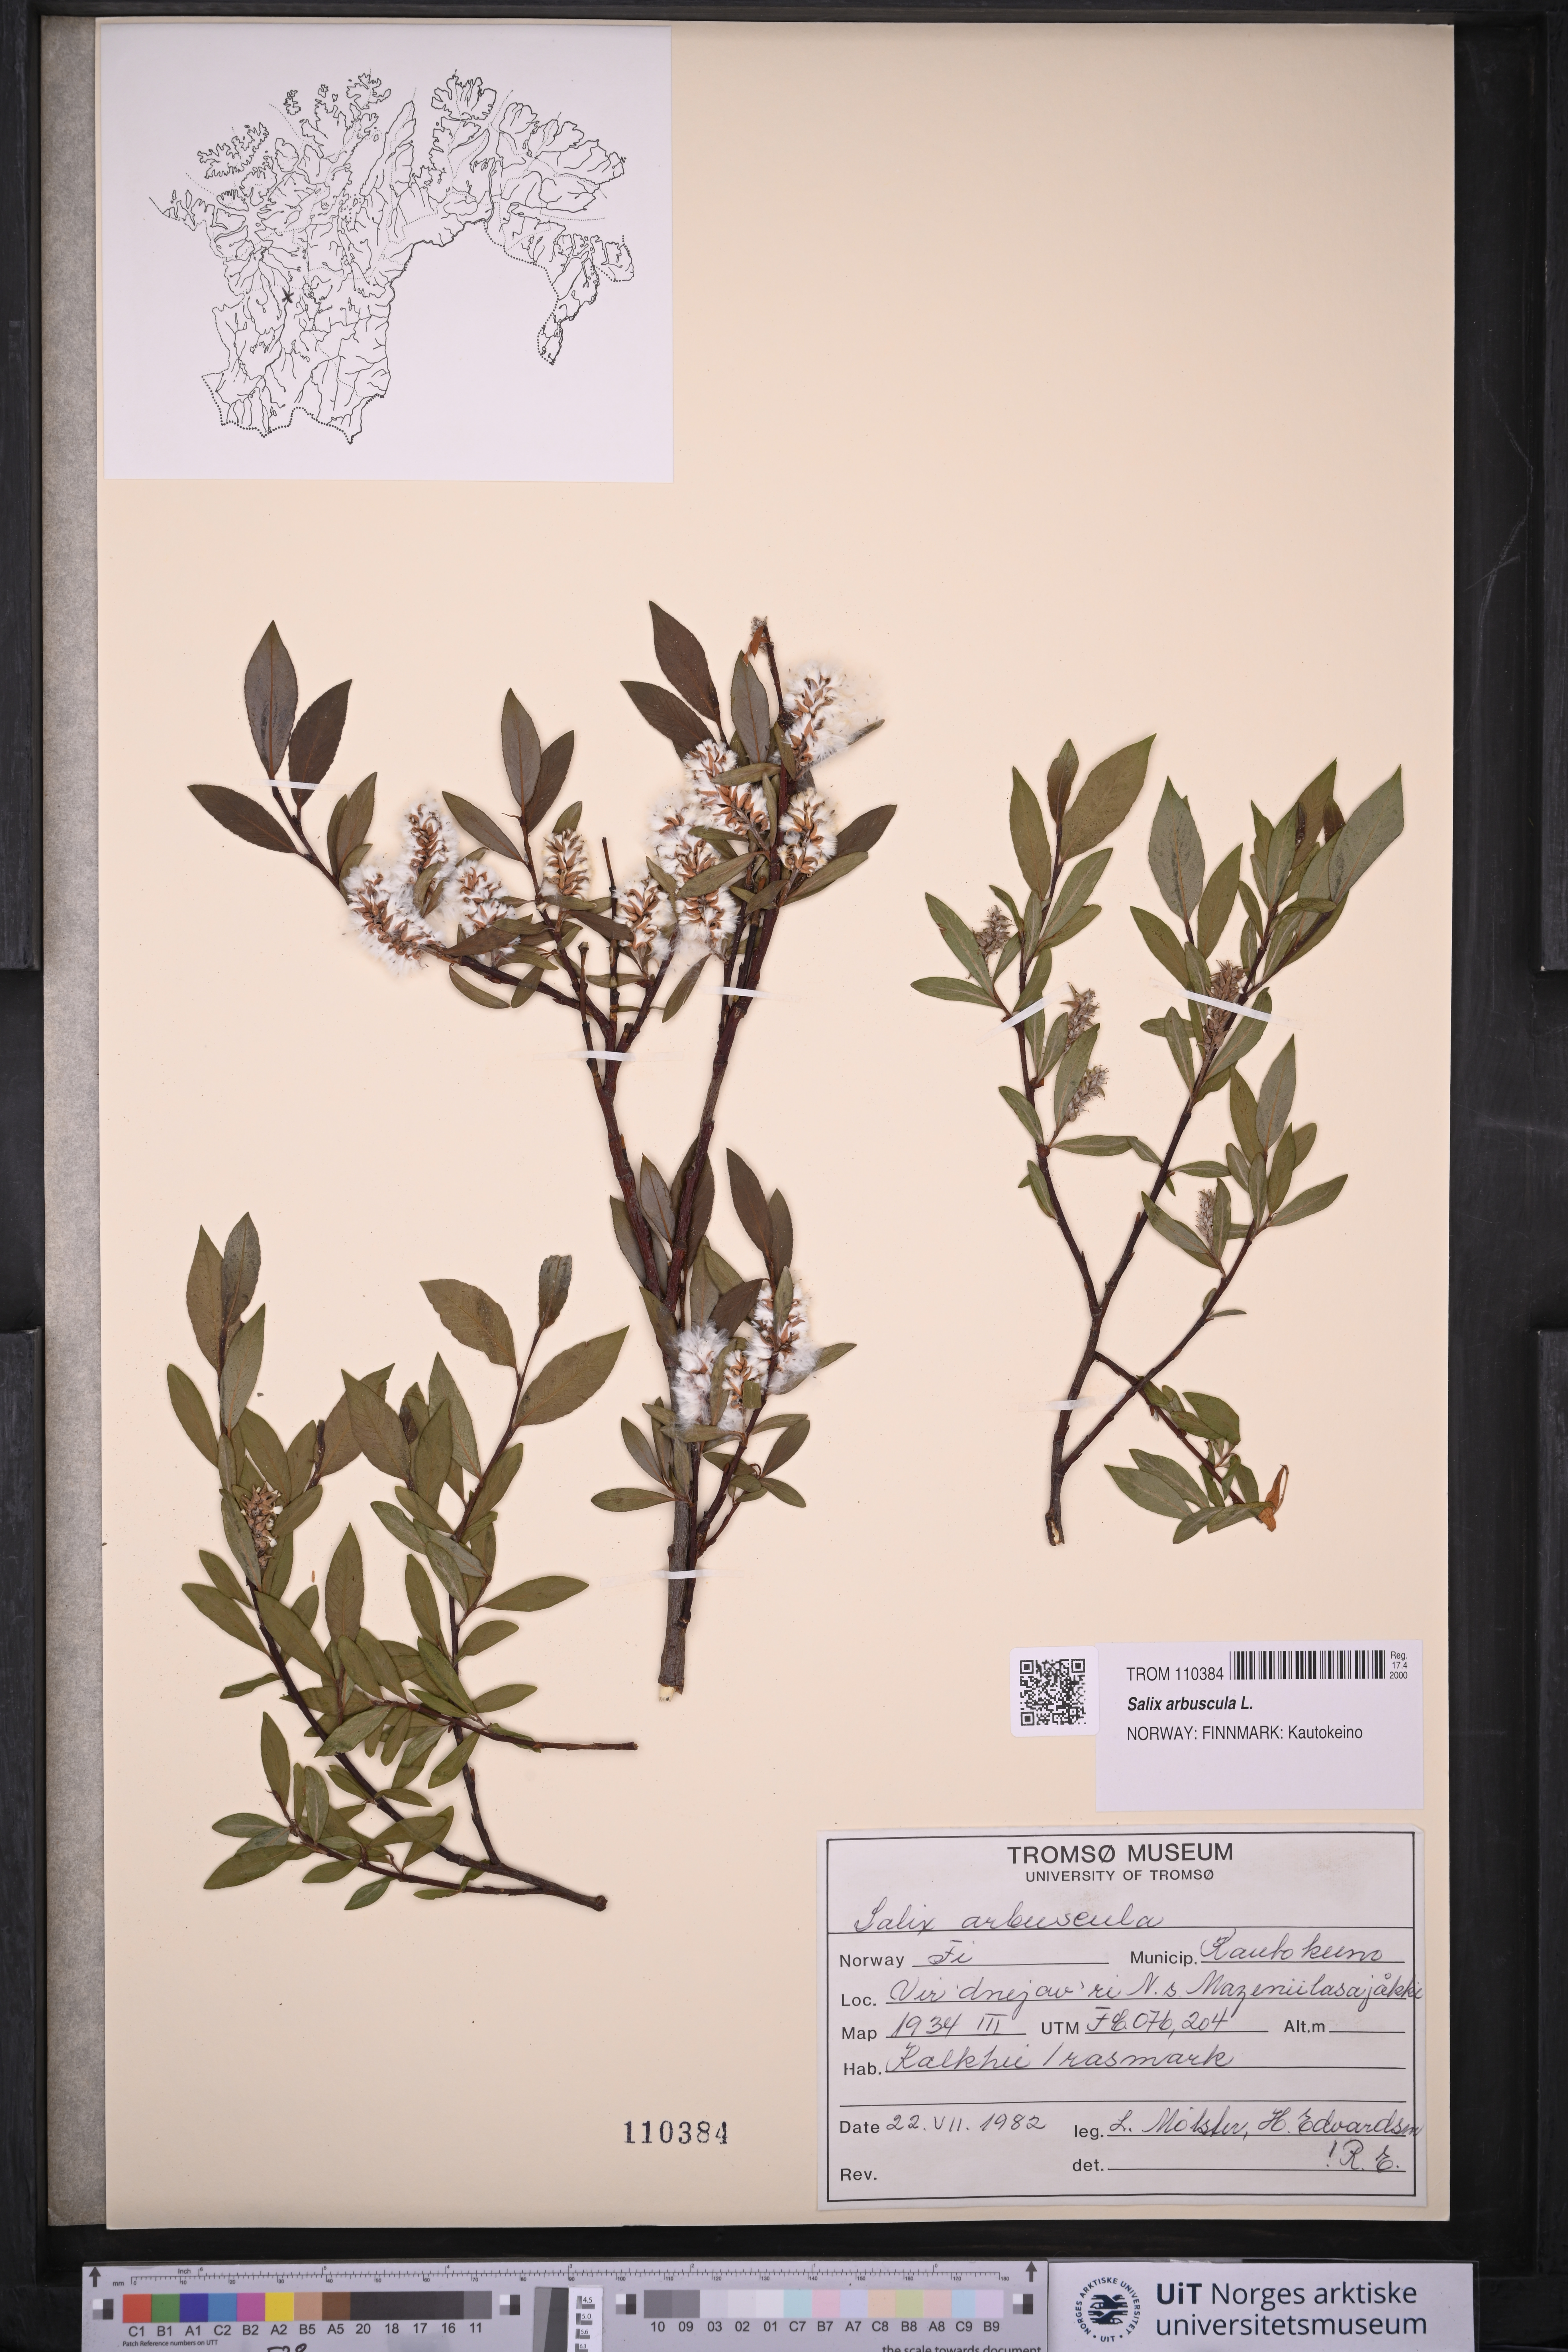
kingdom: Plantae
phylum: Tracheophyta
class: Magnoliopsida
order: Malpighiales
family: Salicaceae
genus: Salix
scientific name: Salix arbuscula
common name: Mountain willow
